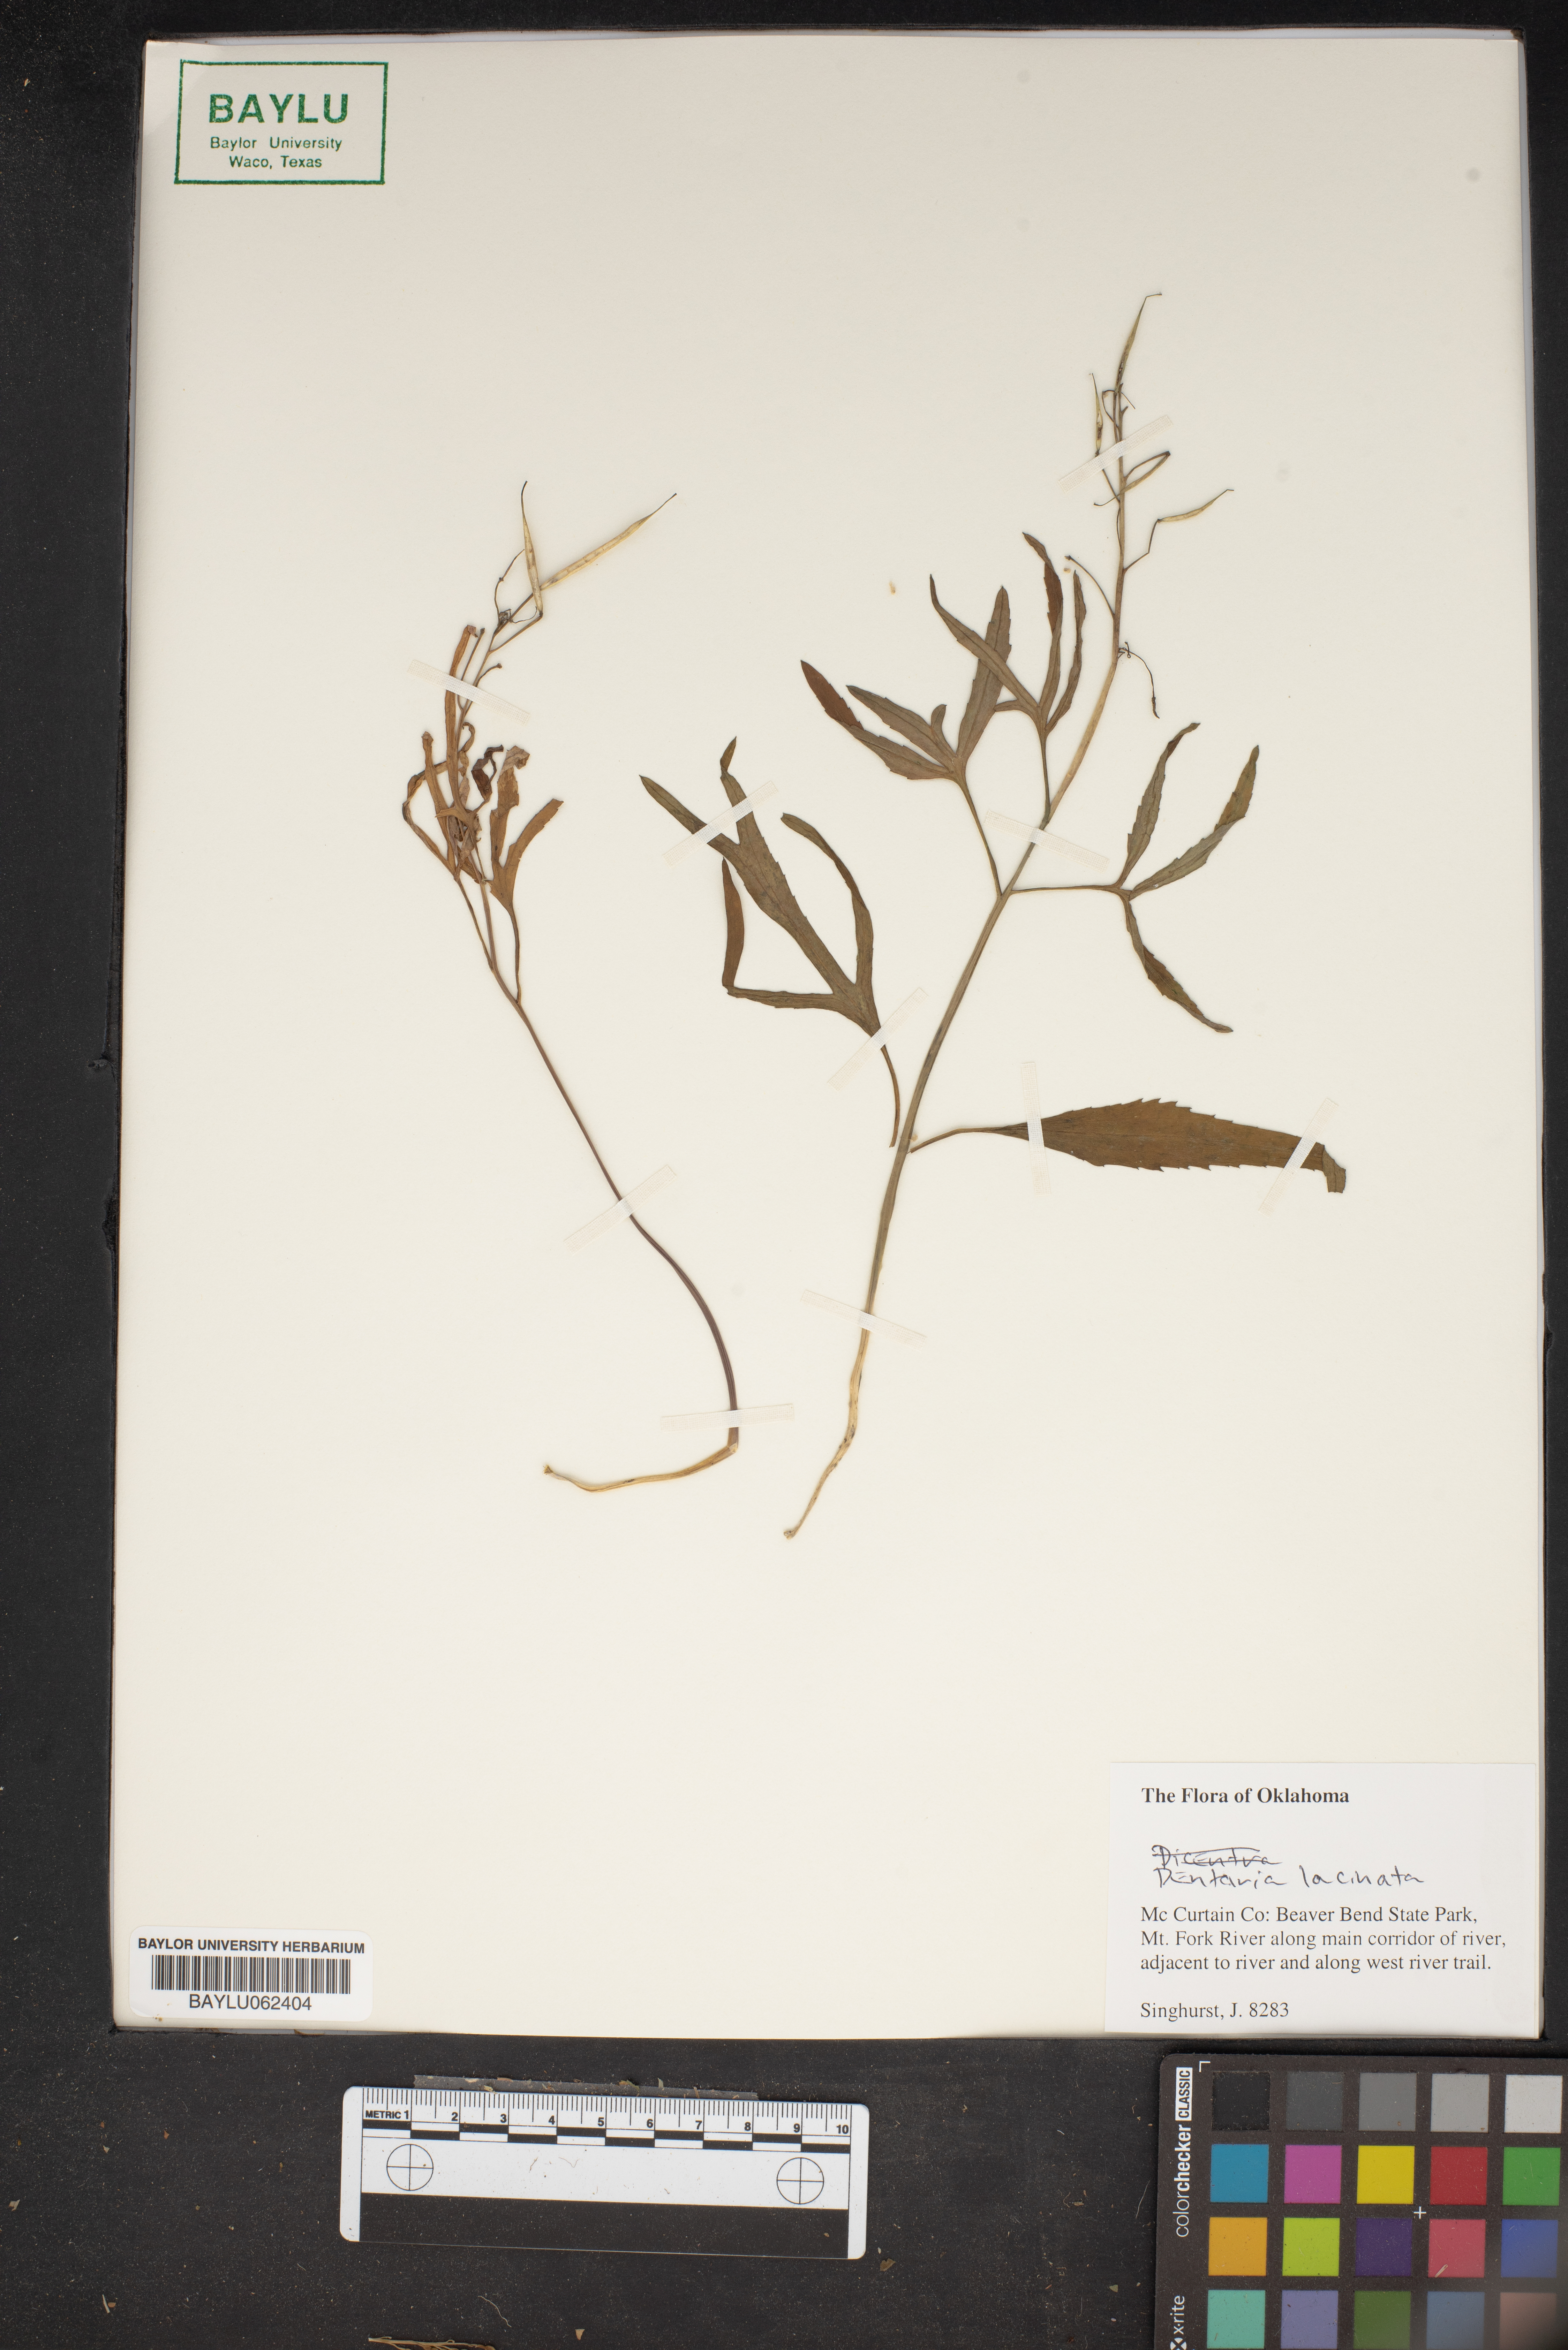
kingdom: Plantae
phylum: Tracheophyta
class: Magnoliopsida
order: Brassicales
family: Brassicaceae
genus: Cardamine
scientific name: Cardamine concatenata
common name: Cut-leaf toothcup
